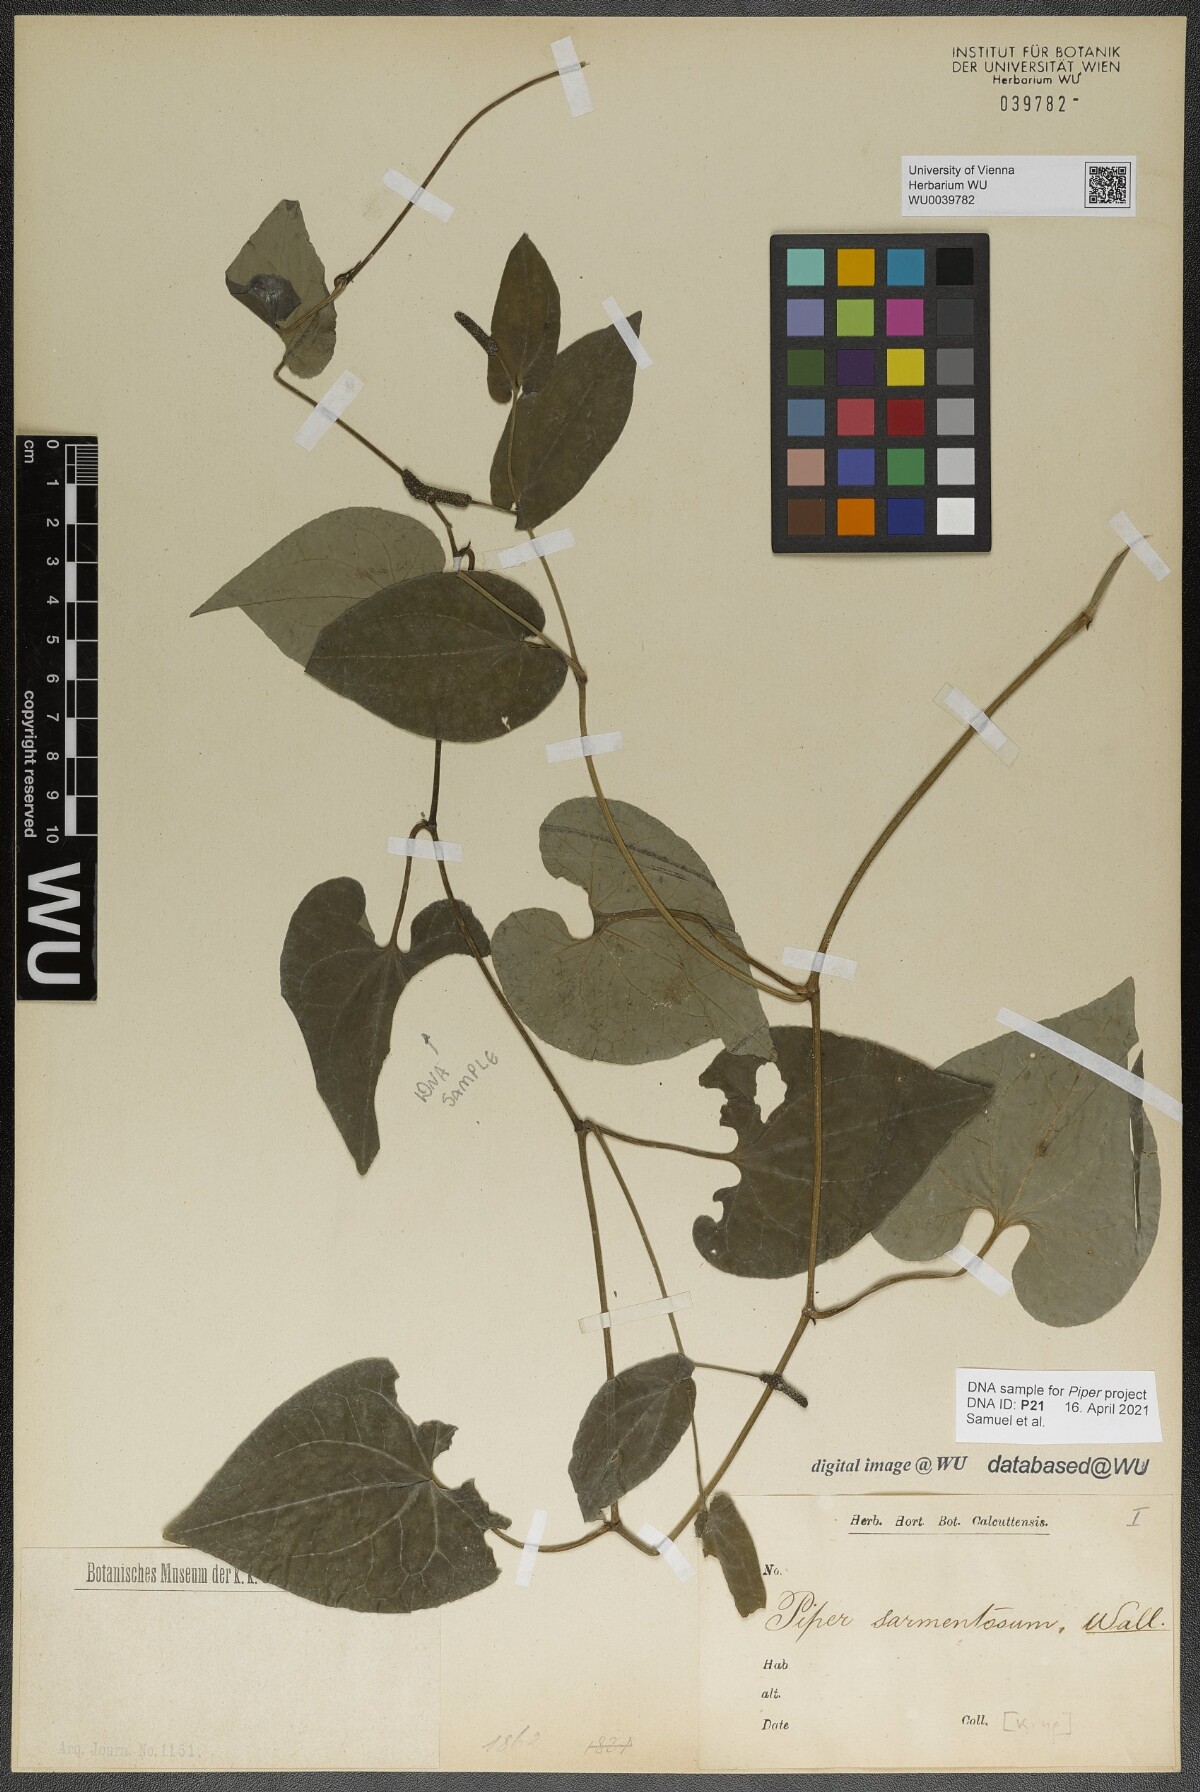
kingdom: Plantae
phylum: Tracheophyta
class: Magnoliopsida
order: Piperales
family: Piperaceae
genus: Piper
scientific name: Piper longum
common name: Long pepper
